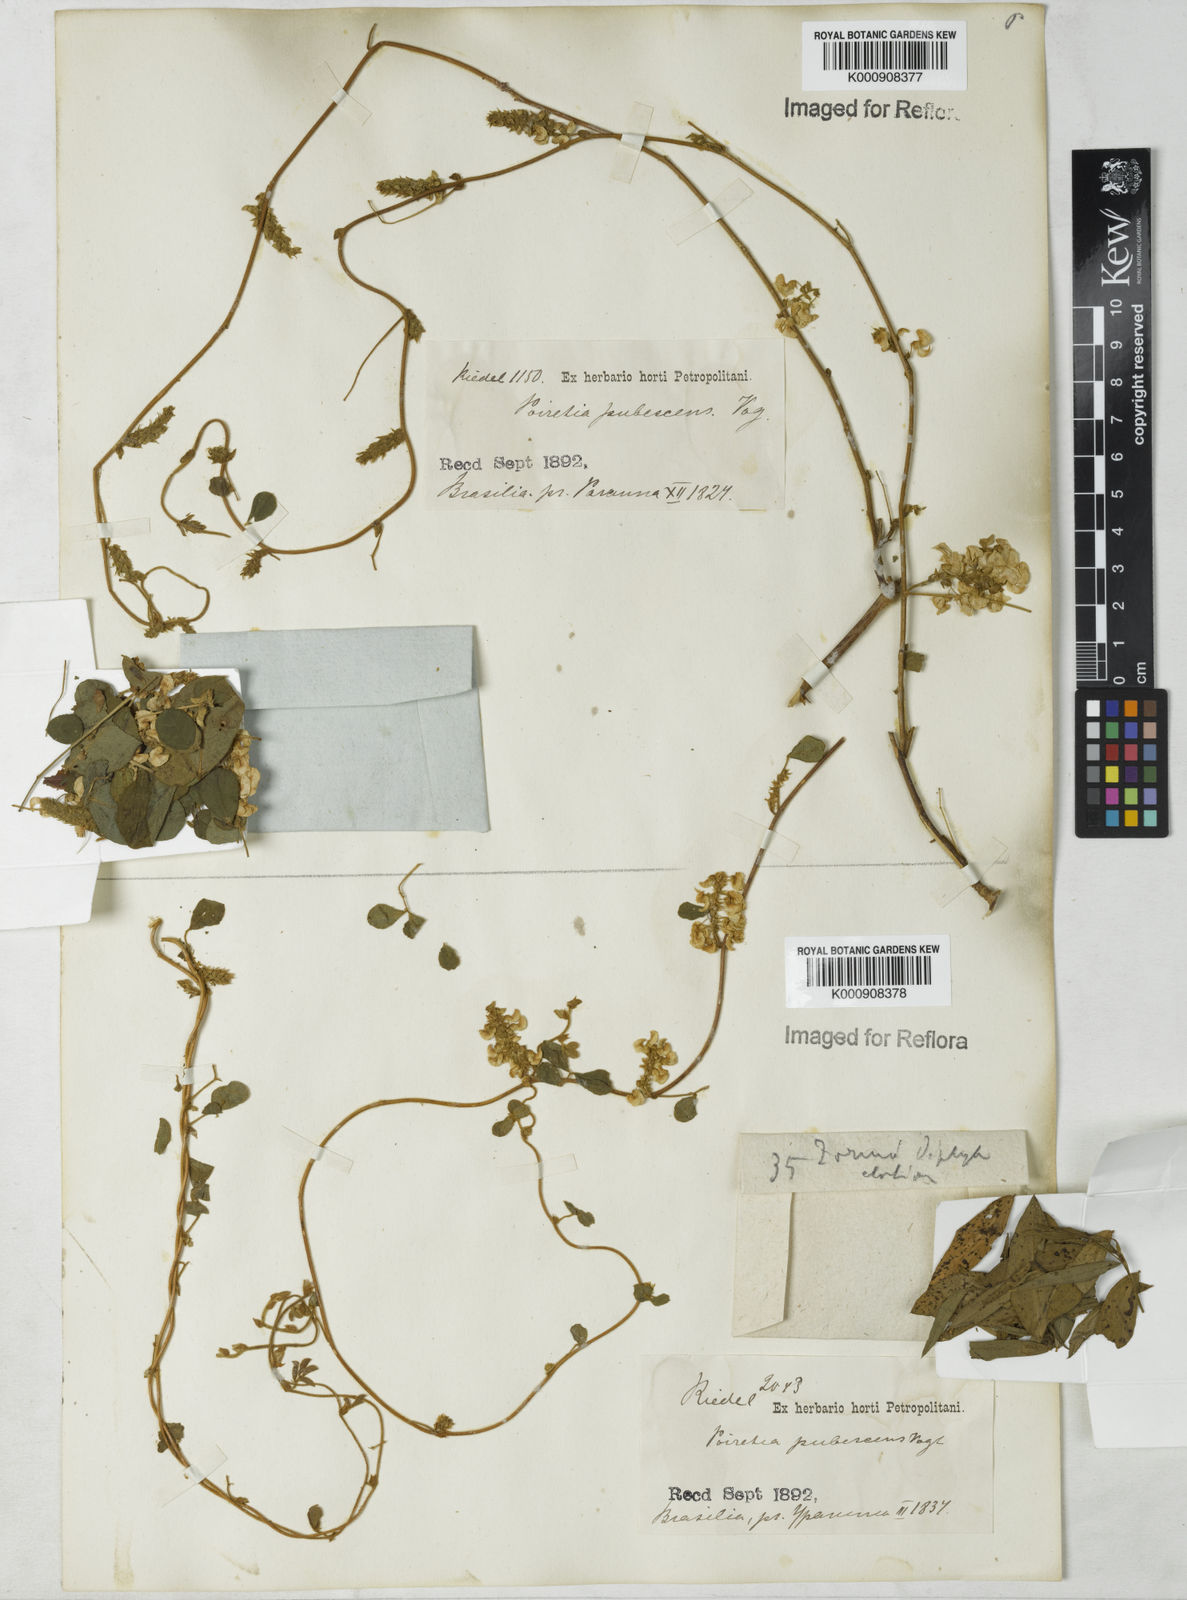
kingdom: Plantae
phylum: Tracheophyta
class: Magnoliopsida
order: Fabales
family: Fabaceae
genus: Poiretia
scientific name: Poiretia punctata
